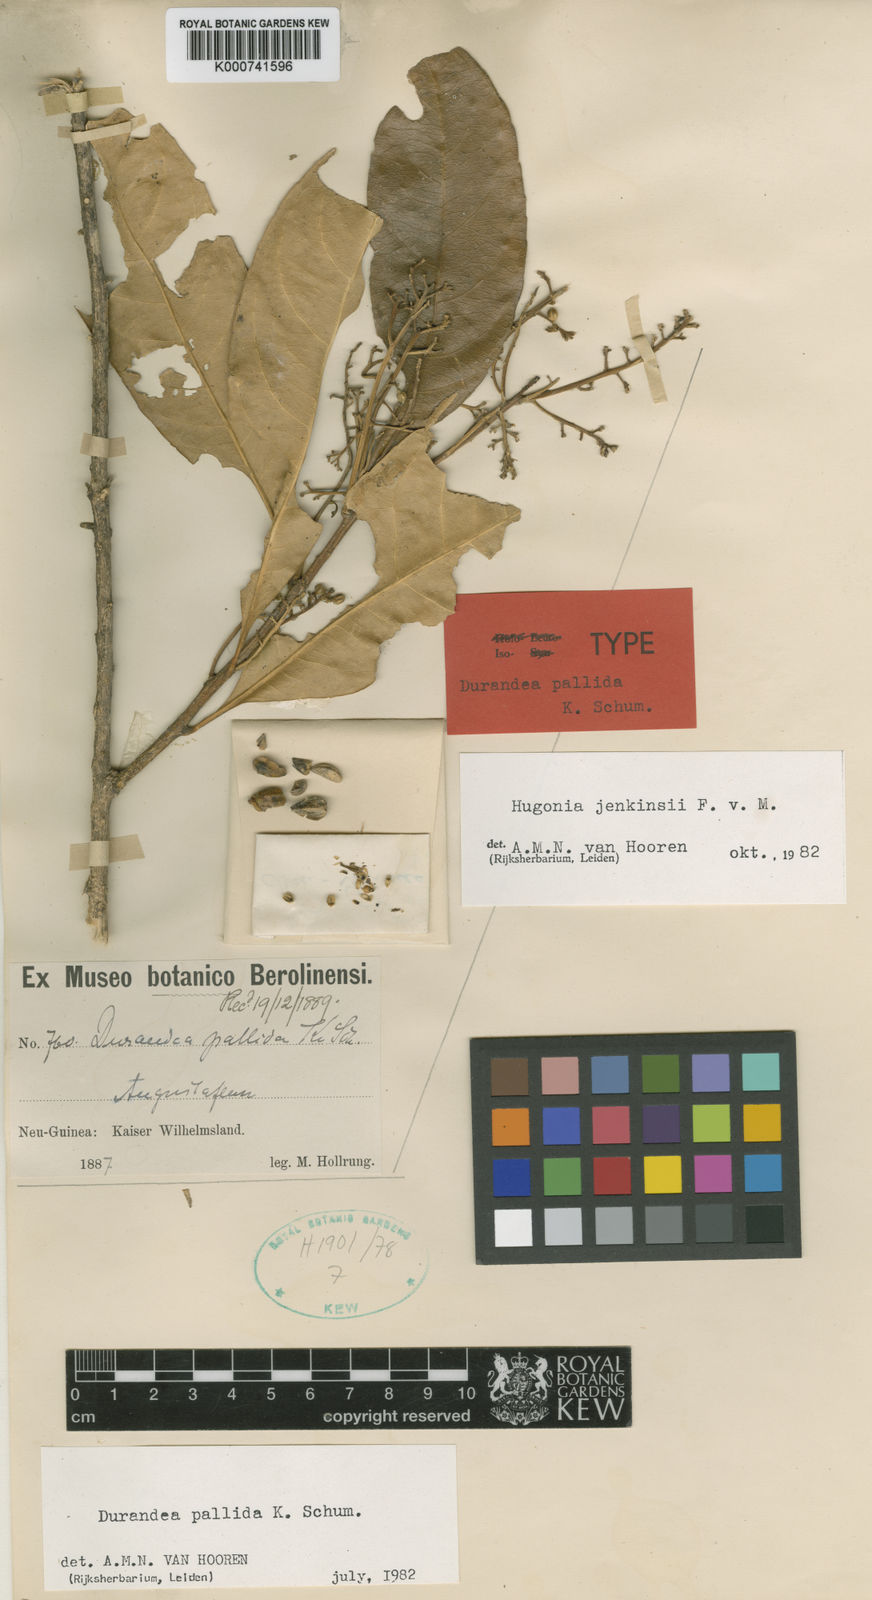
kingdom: Plantae
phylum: Tracheophyta
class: Magnoliopsida
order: Malpighiales
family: Linaceae
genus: Durandea
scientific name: Durandea jenkinsii
